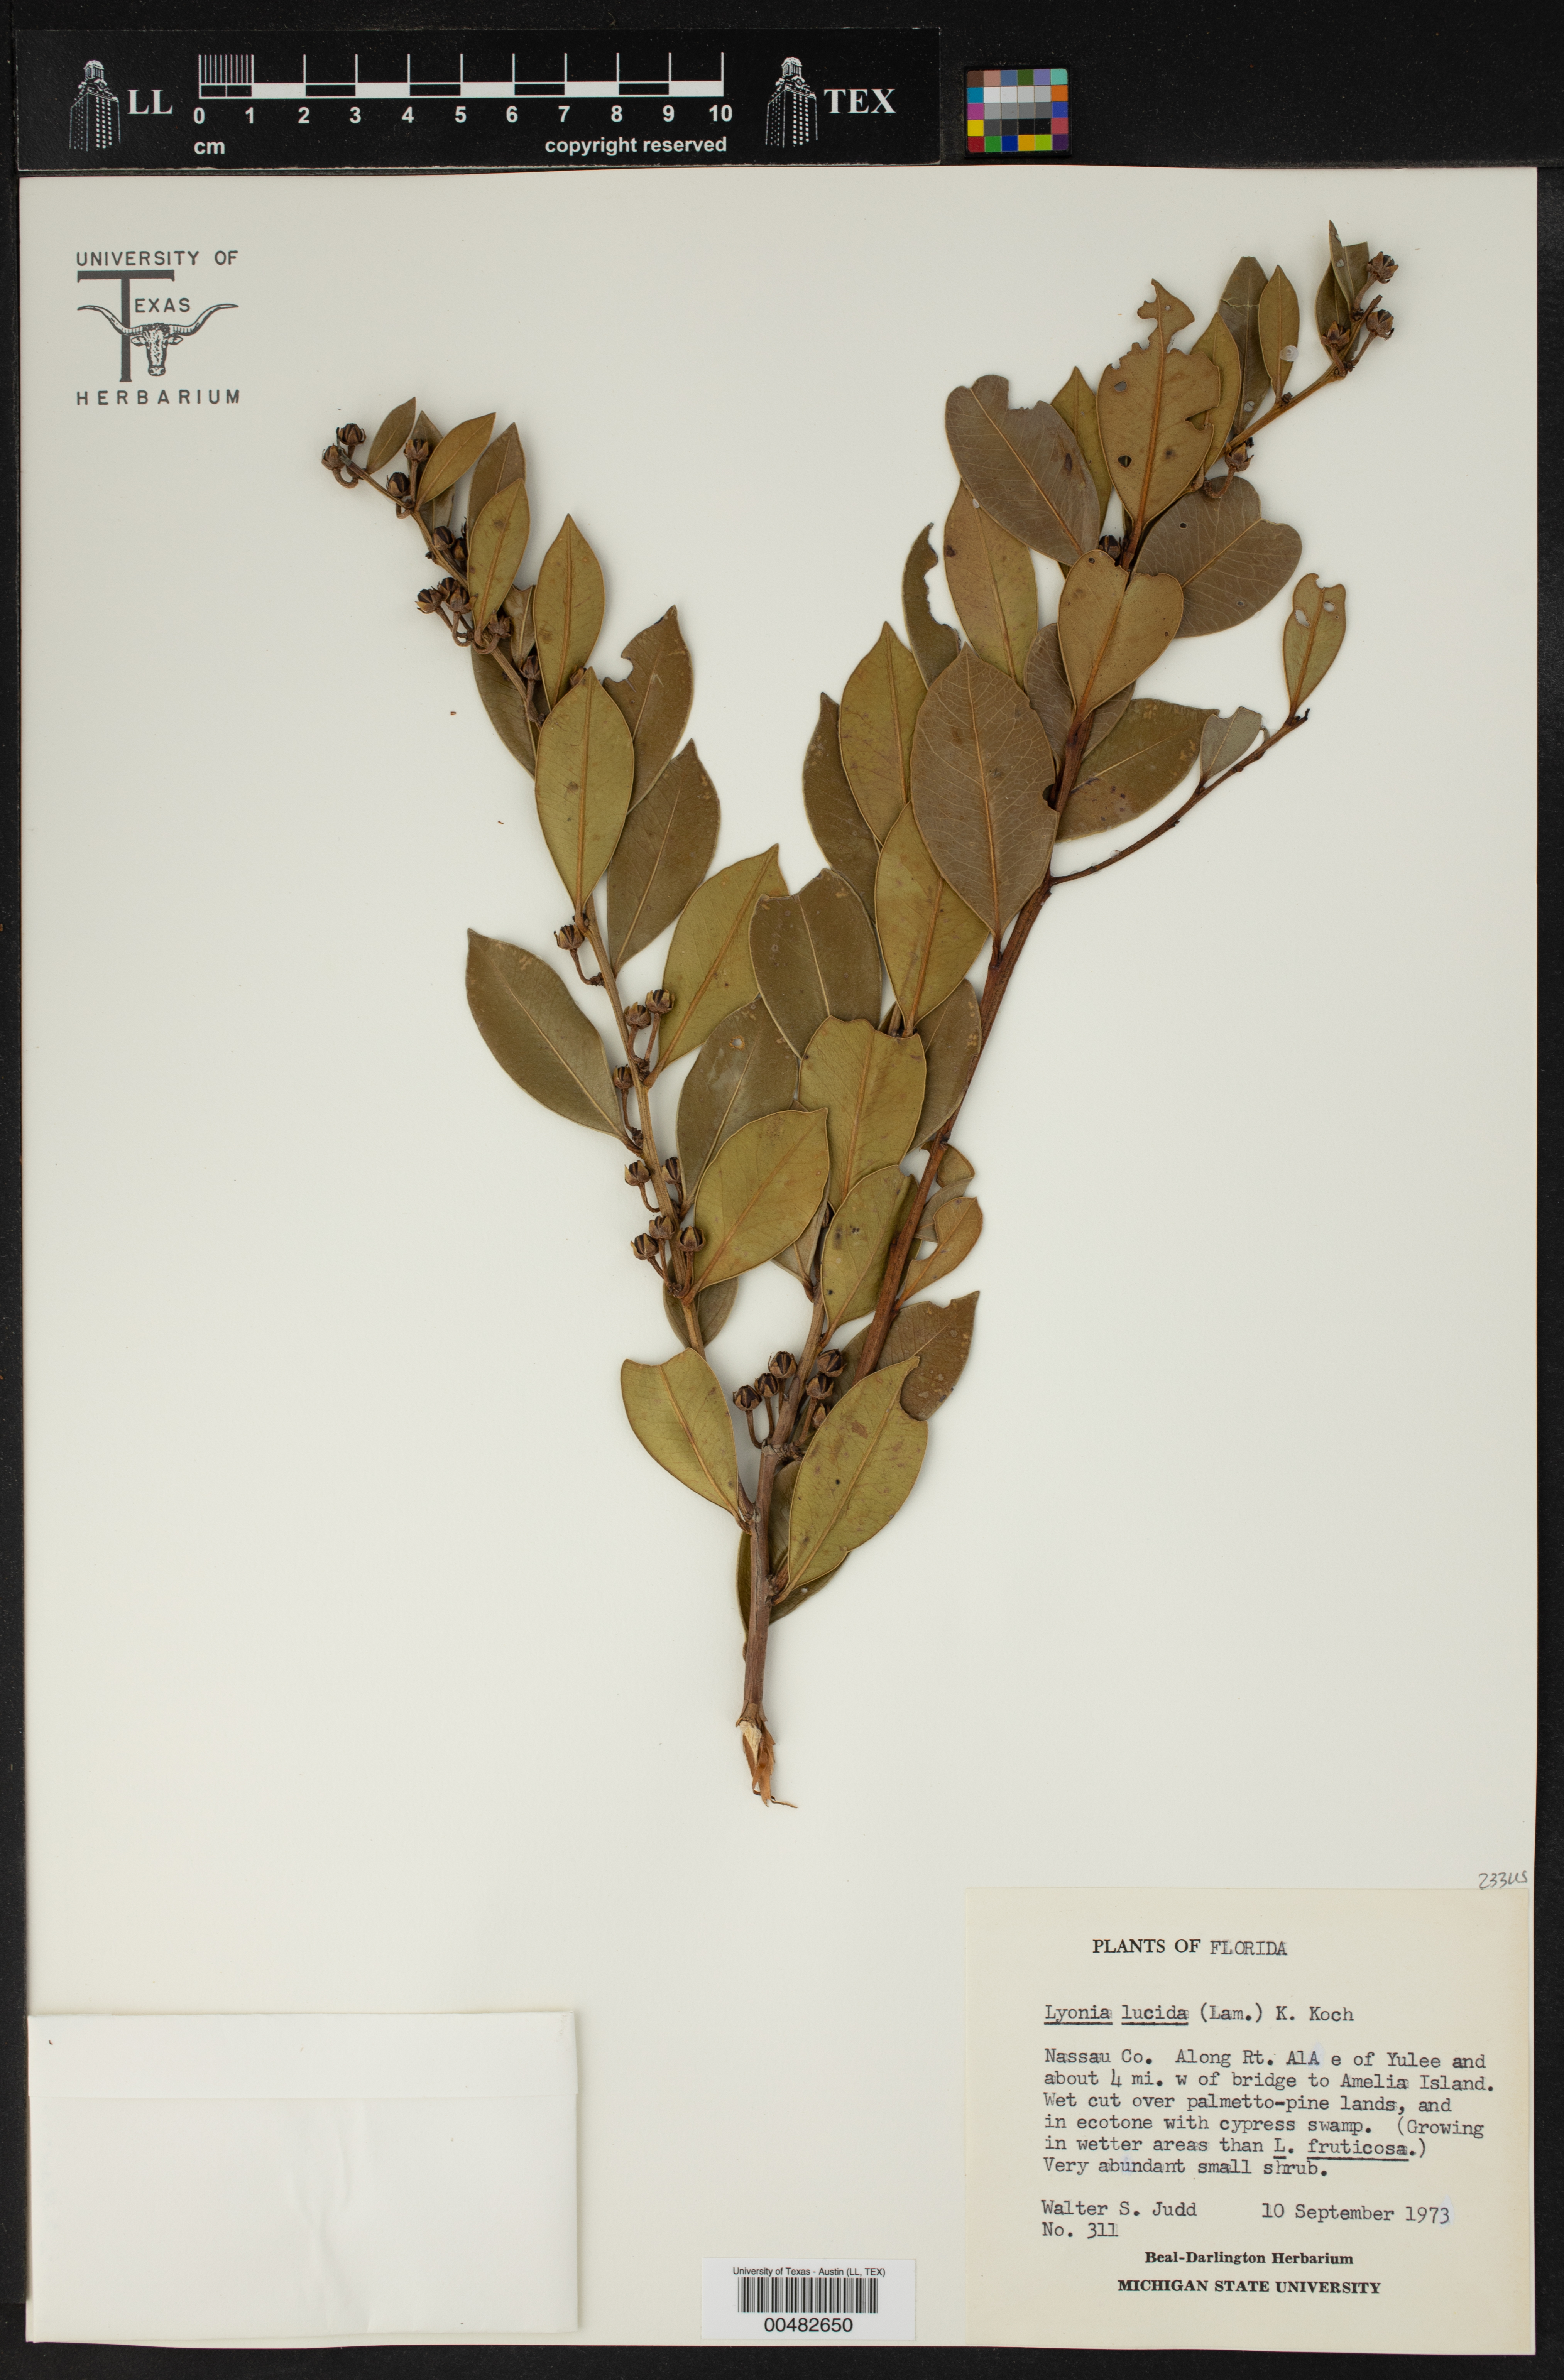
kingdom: Plantae
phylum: Tracheophyta
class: Magnoliopsida
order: Ericales
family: Ericaceae
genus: Lyonia
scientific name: Lyonia lucida
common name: Fetterbush
